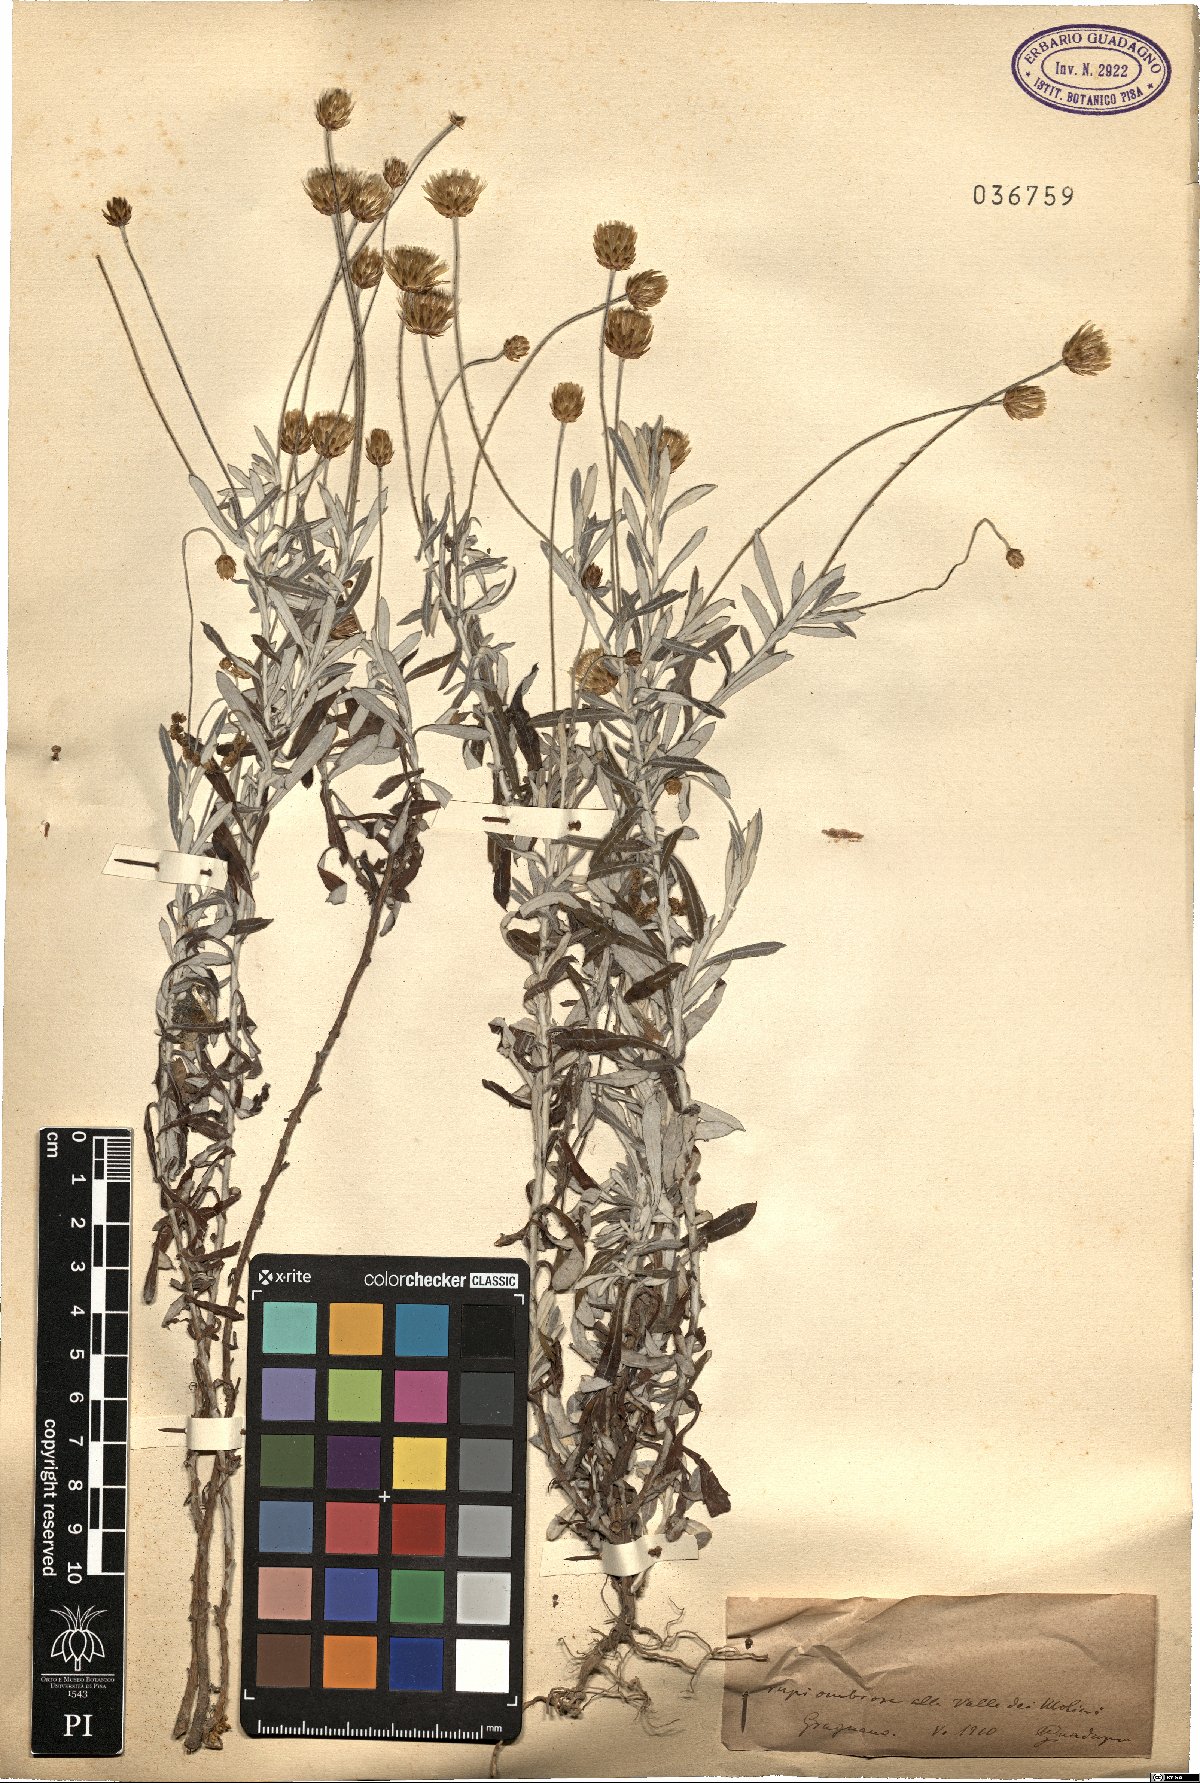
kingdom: Plantae
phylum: Tracheophyta
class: Magnoliopsida
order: Asterales
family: Asteraceae
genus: Phagnalon
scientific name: Phagnalon
